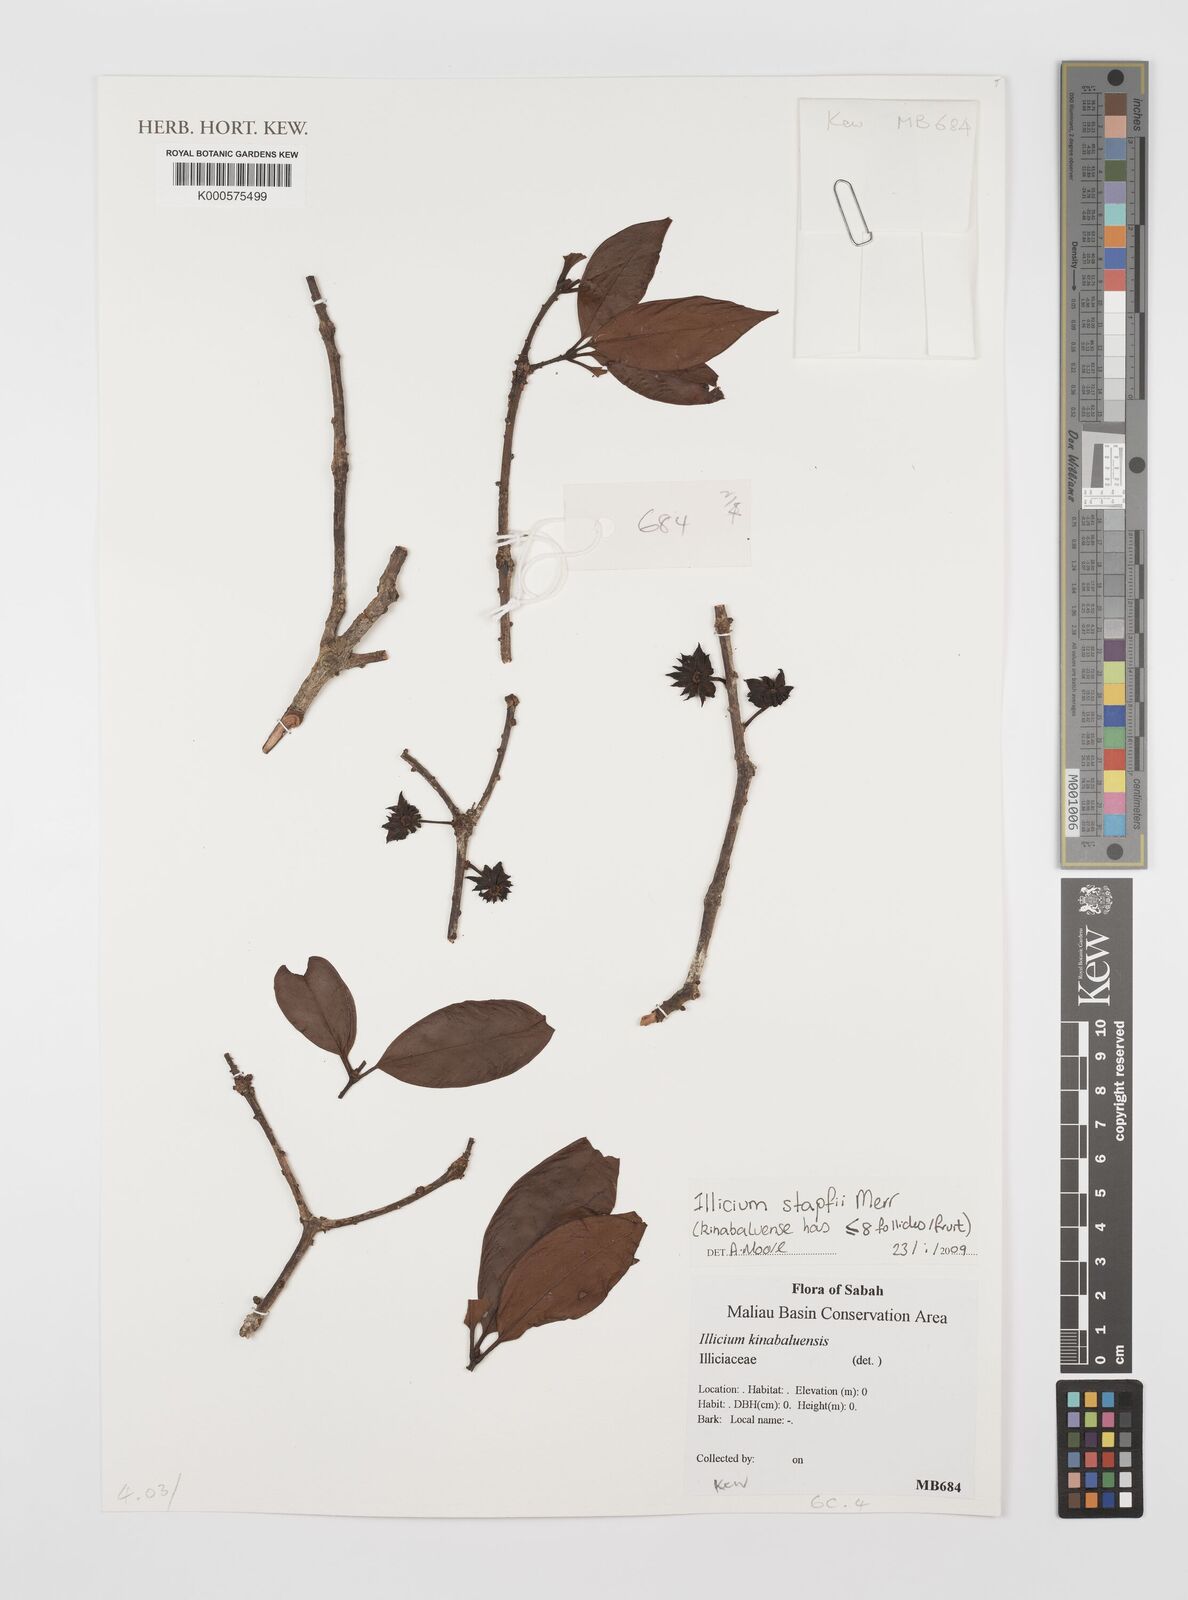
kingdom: Plantae
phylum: Tracheophyta
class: Magnoliopsida
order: Austrobaileyales
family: Schisandraceae
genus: Illicium
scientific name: Illicium stapfii
